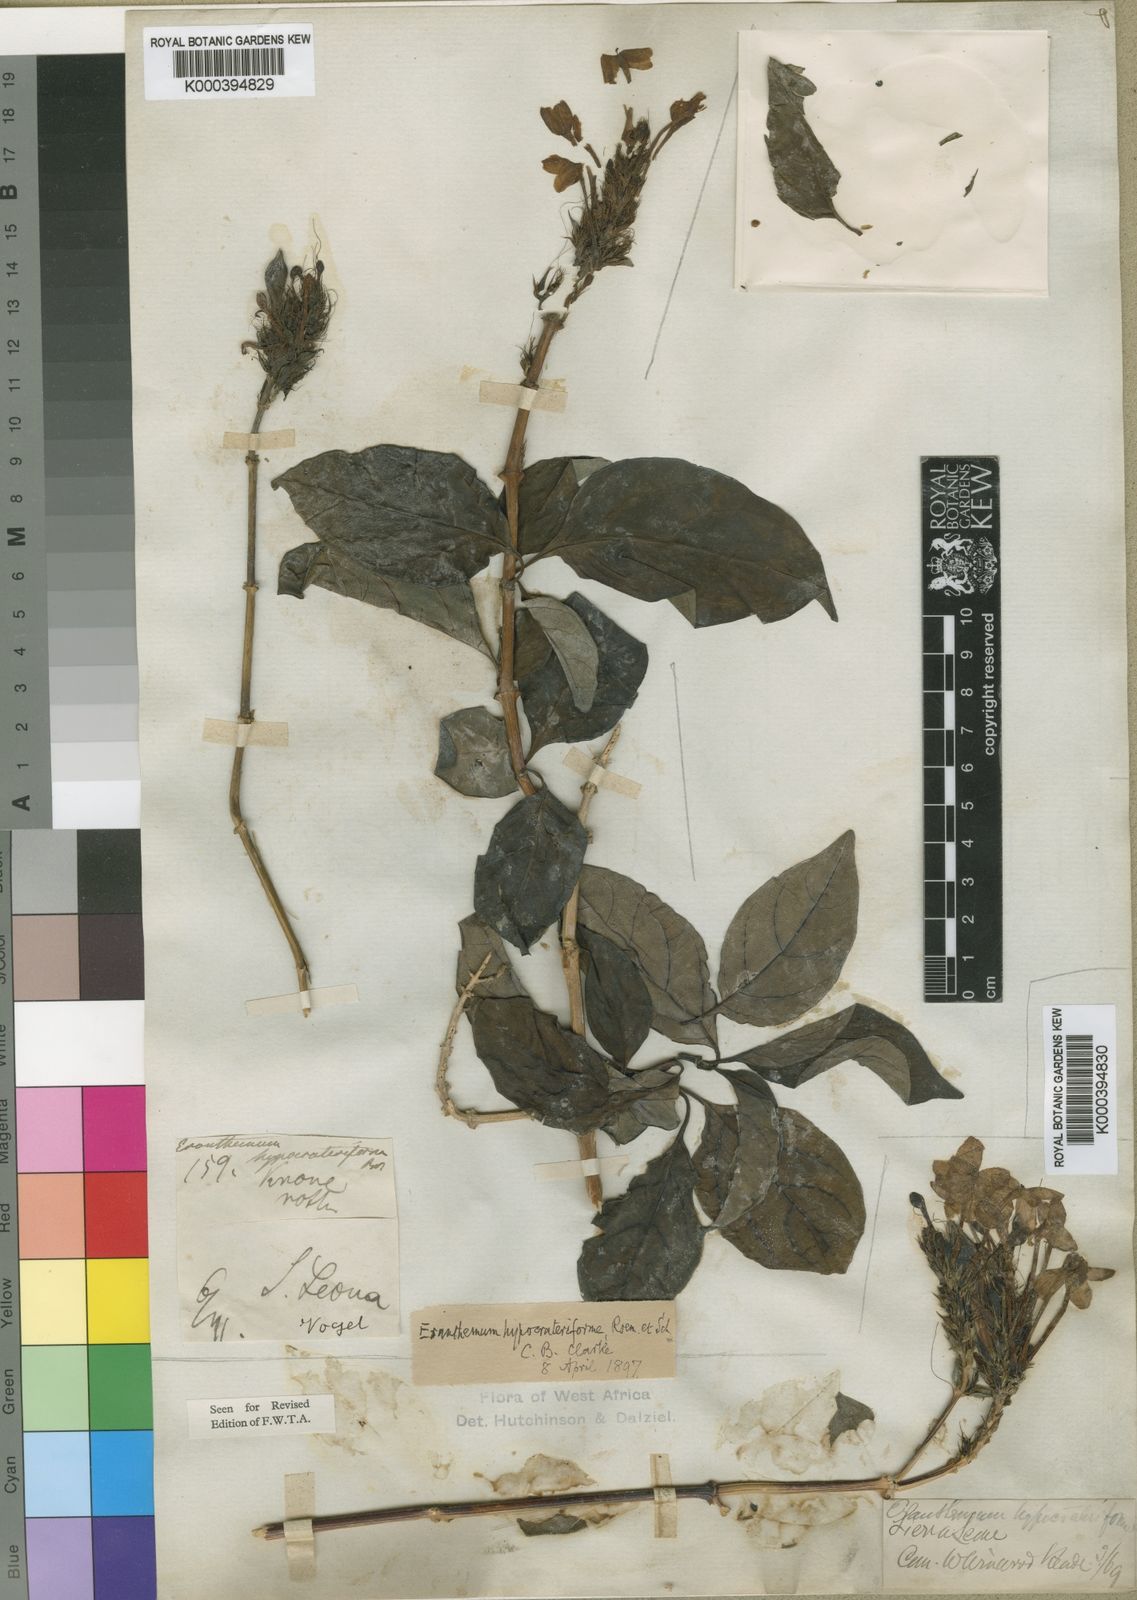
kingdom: Plantae
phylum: Tracheophyta
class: Magnoliopsida
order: Lamiales
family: Acanthaceae
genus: Ruspolia
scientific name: Ruspolia hypocrateriformis
